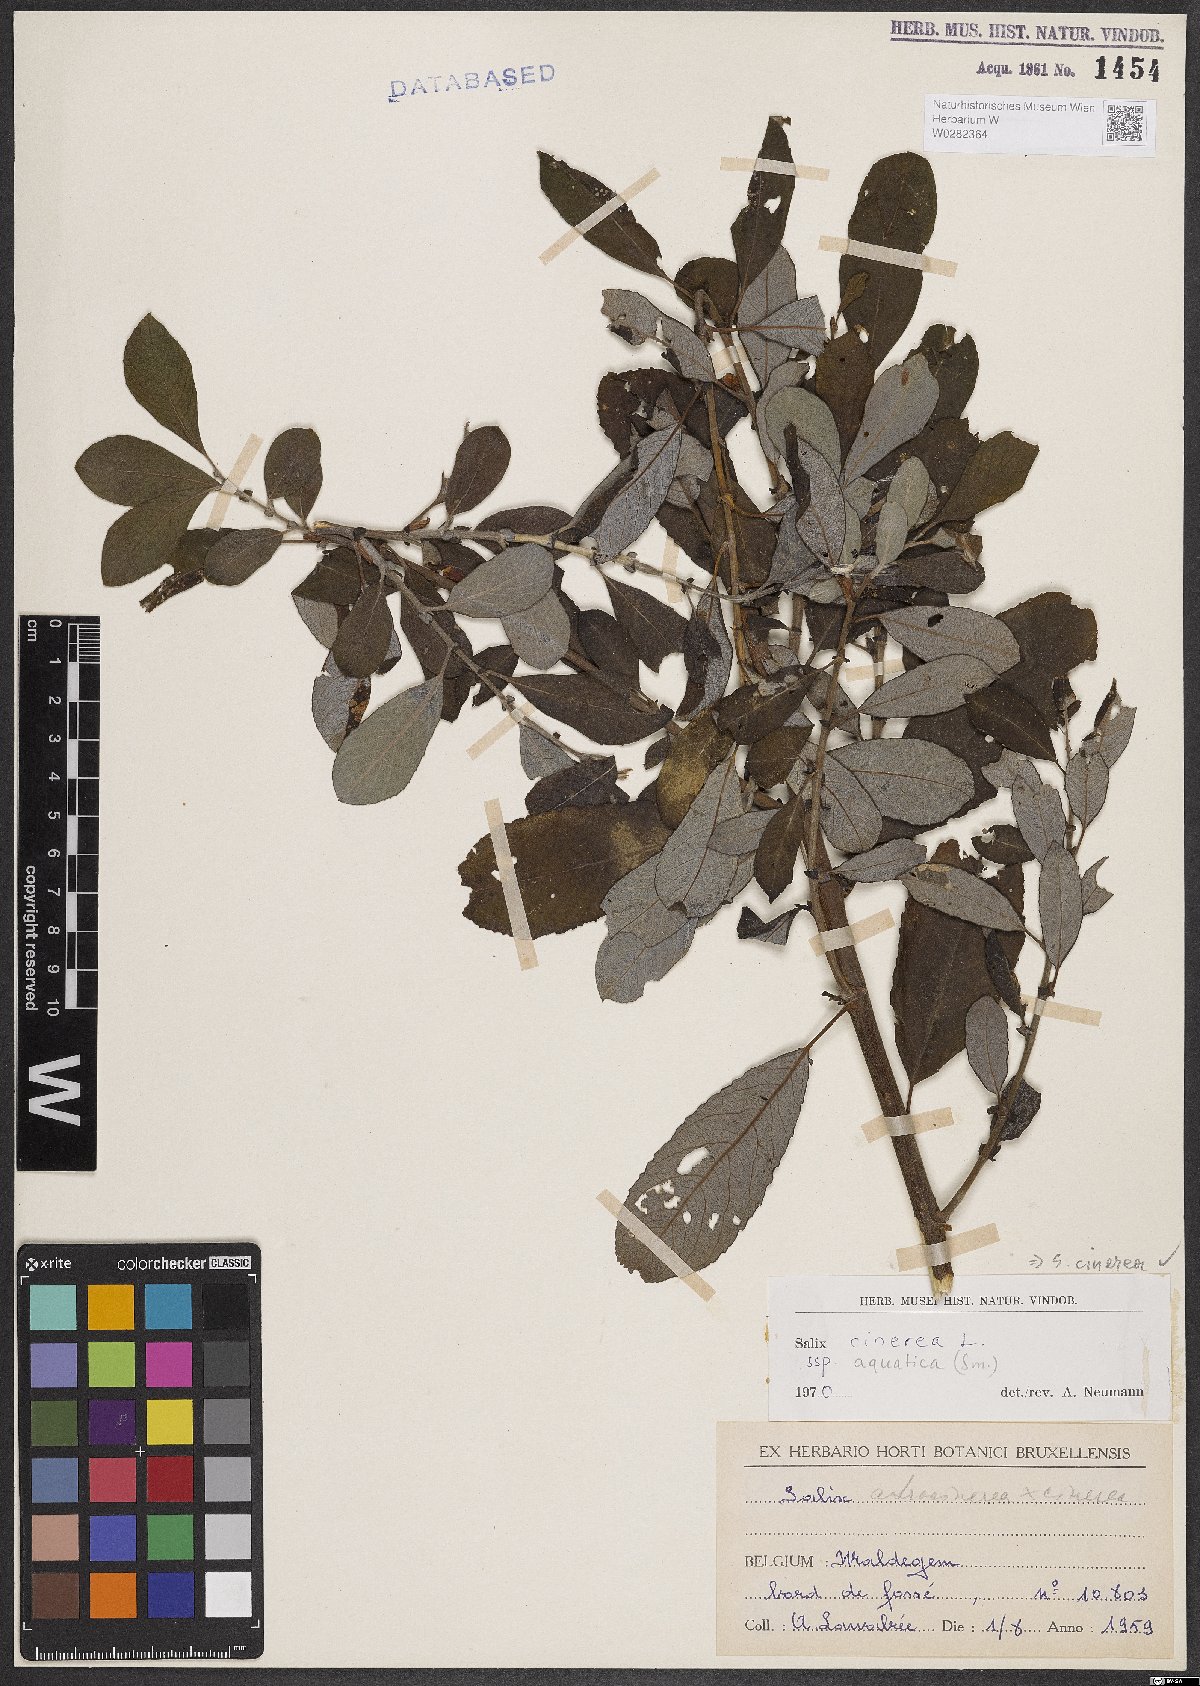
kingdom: Plantae
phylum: Tracheophyta
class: Magnoliopsida
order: Malpighiales
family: Salicaceae
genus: Salix
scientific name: Salix cinerea
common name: Common sallow
